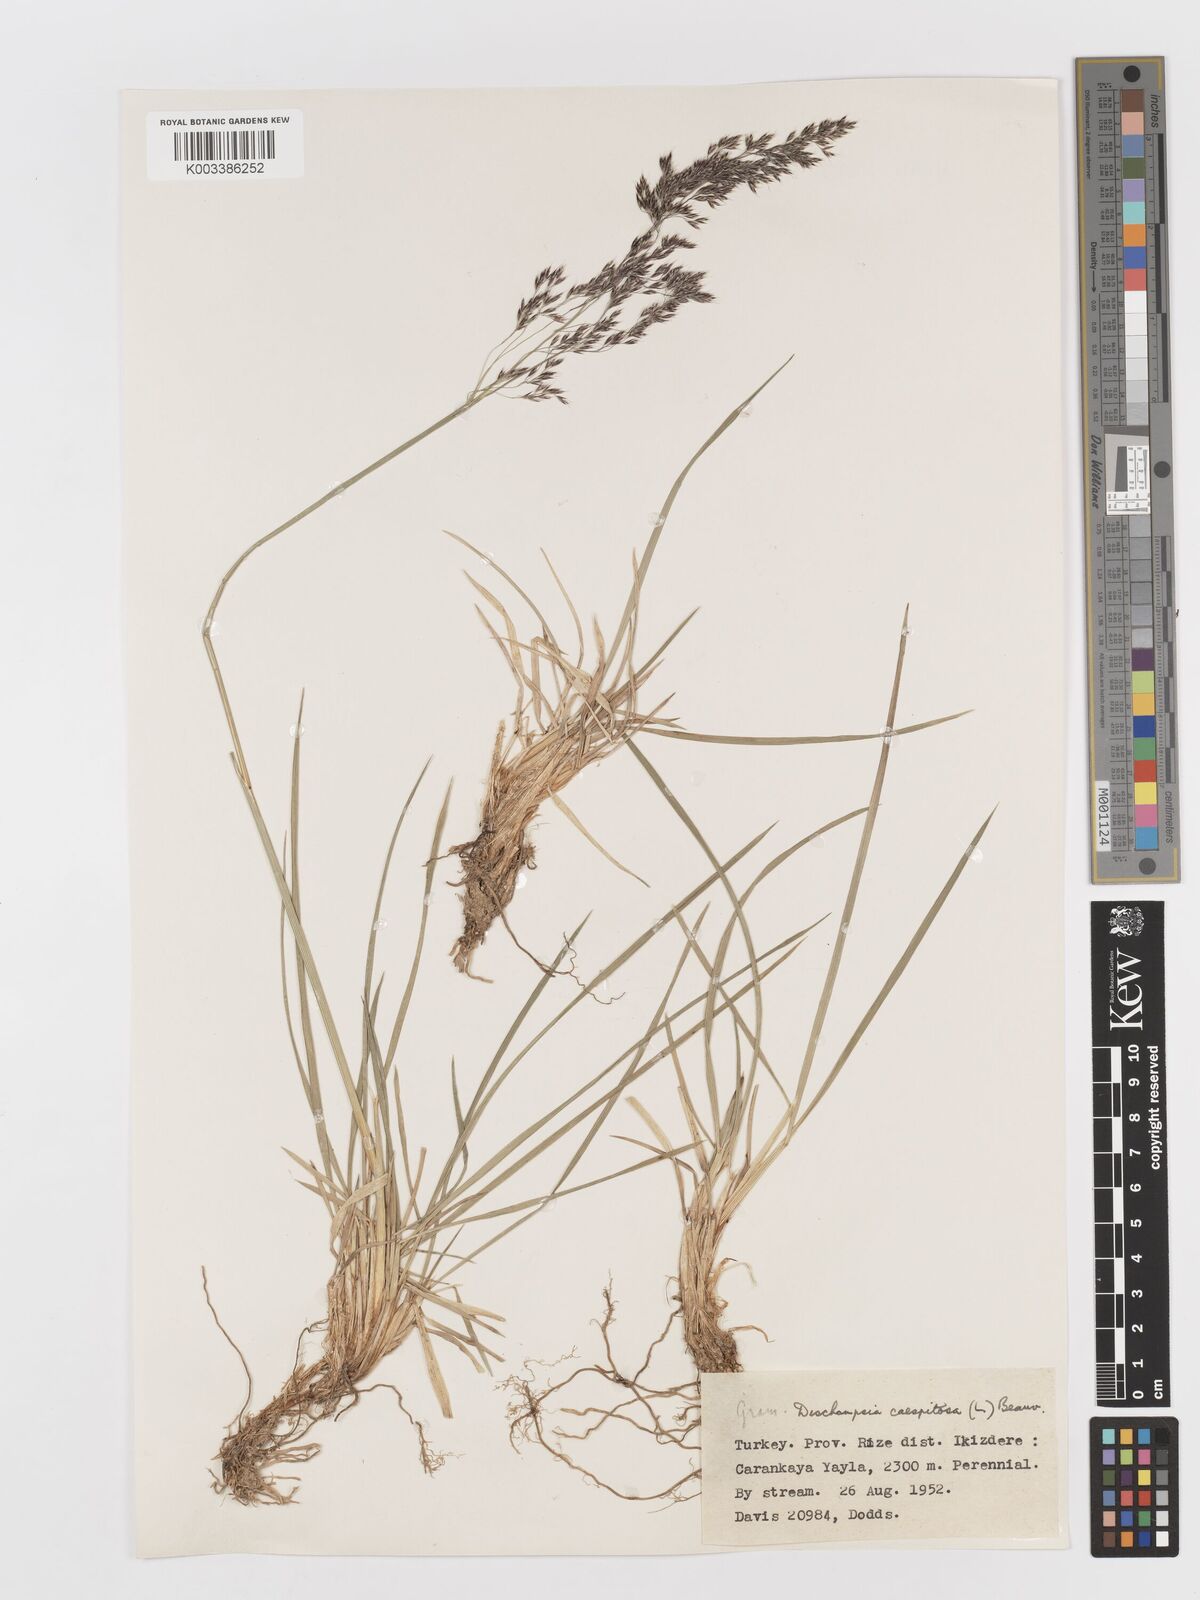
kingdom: Plantae
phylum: Tracheophyta
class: Liliopsida
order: Poales
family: Poaceae
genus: Deschampsia
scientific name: Deschampsia cespitosa
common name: Tufted hair-grass
